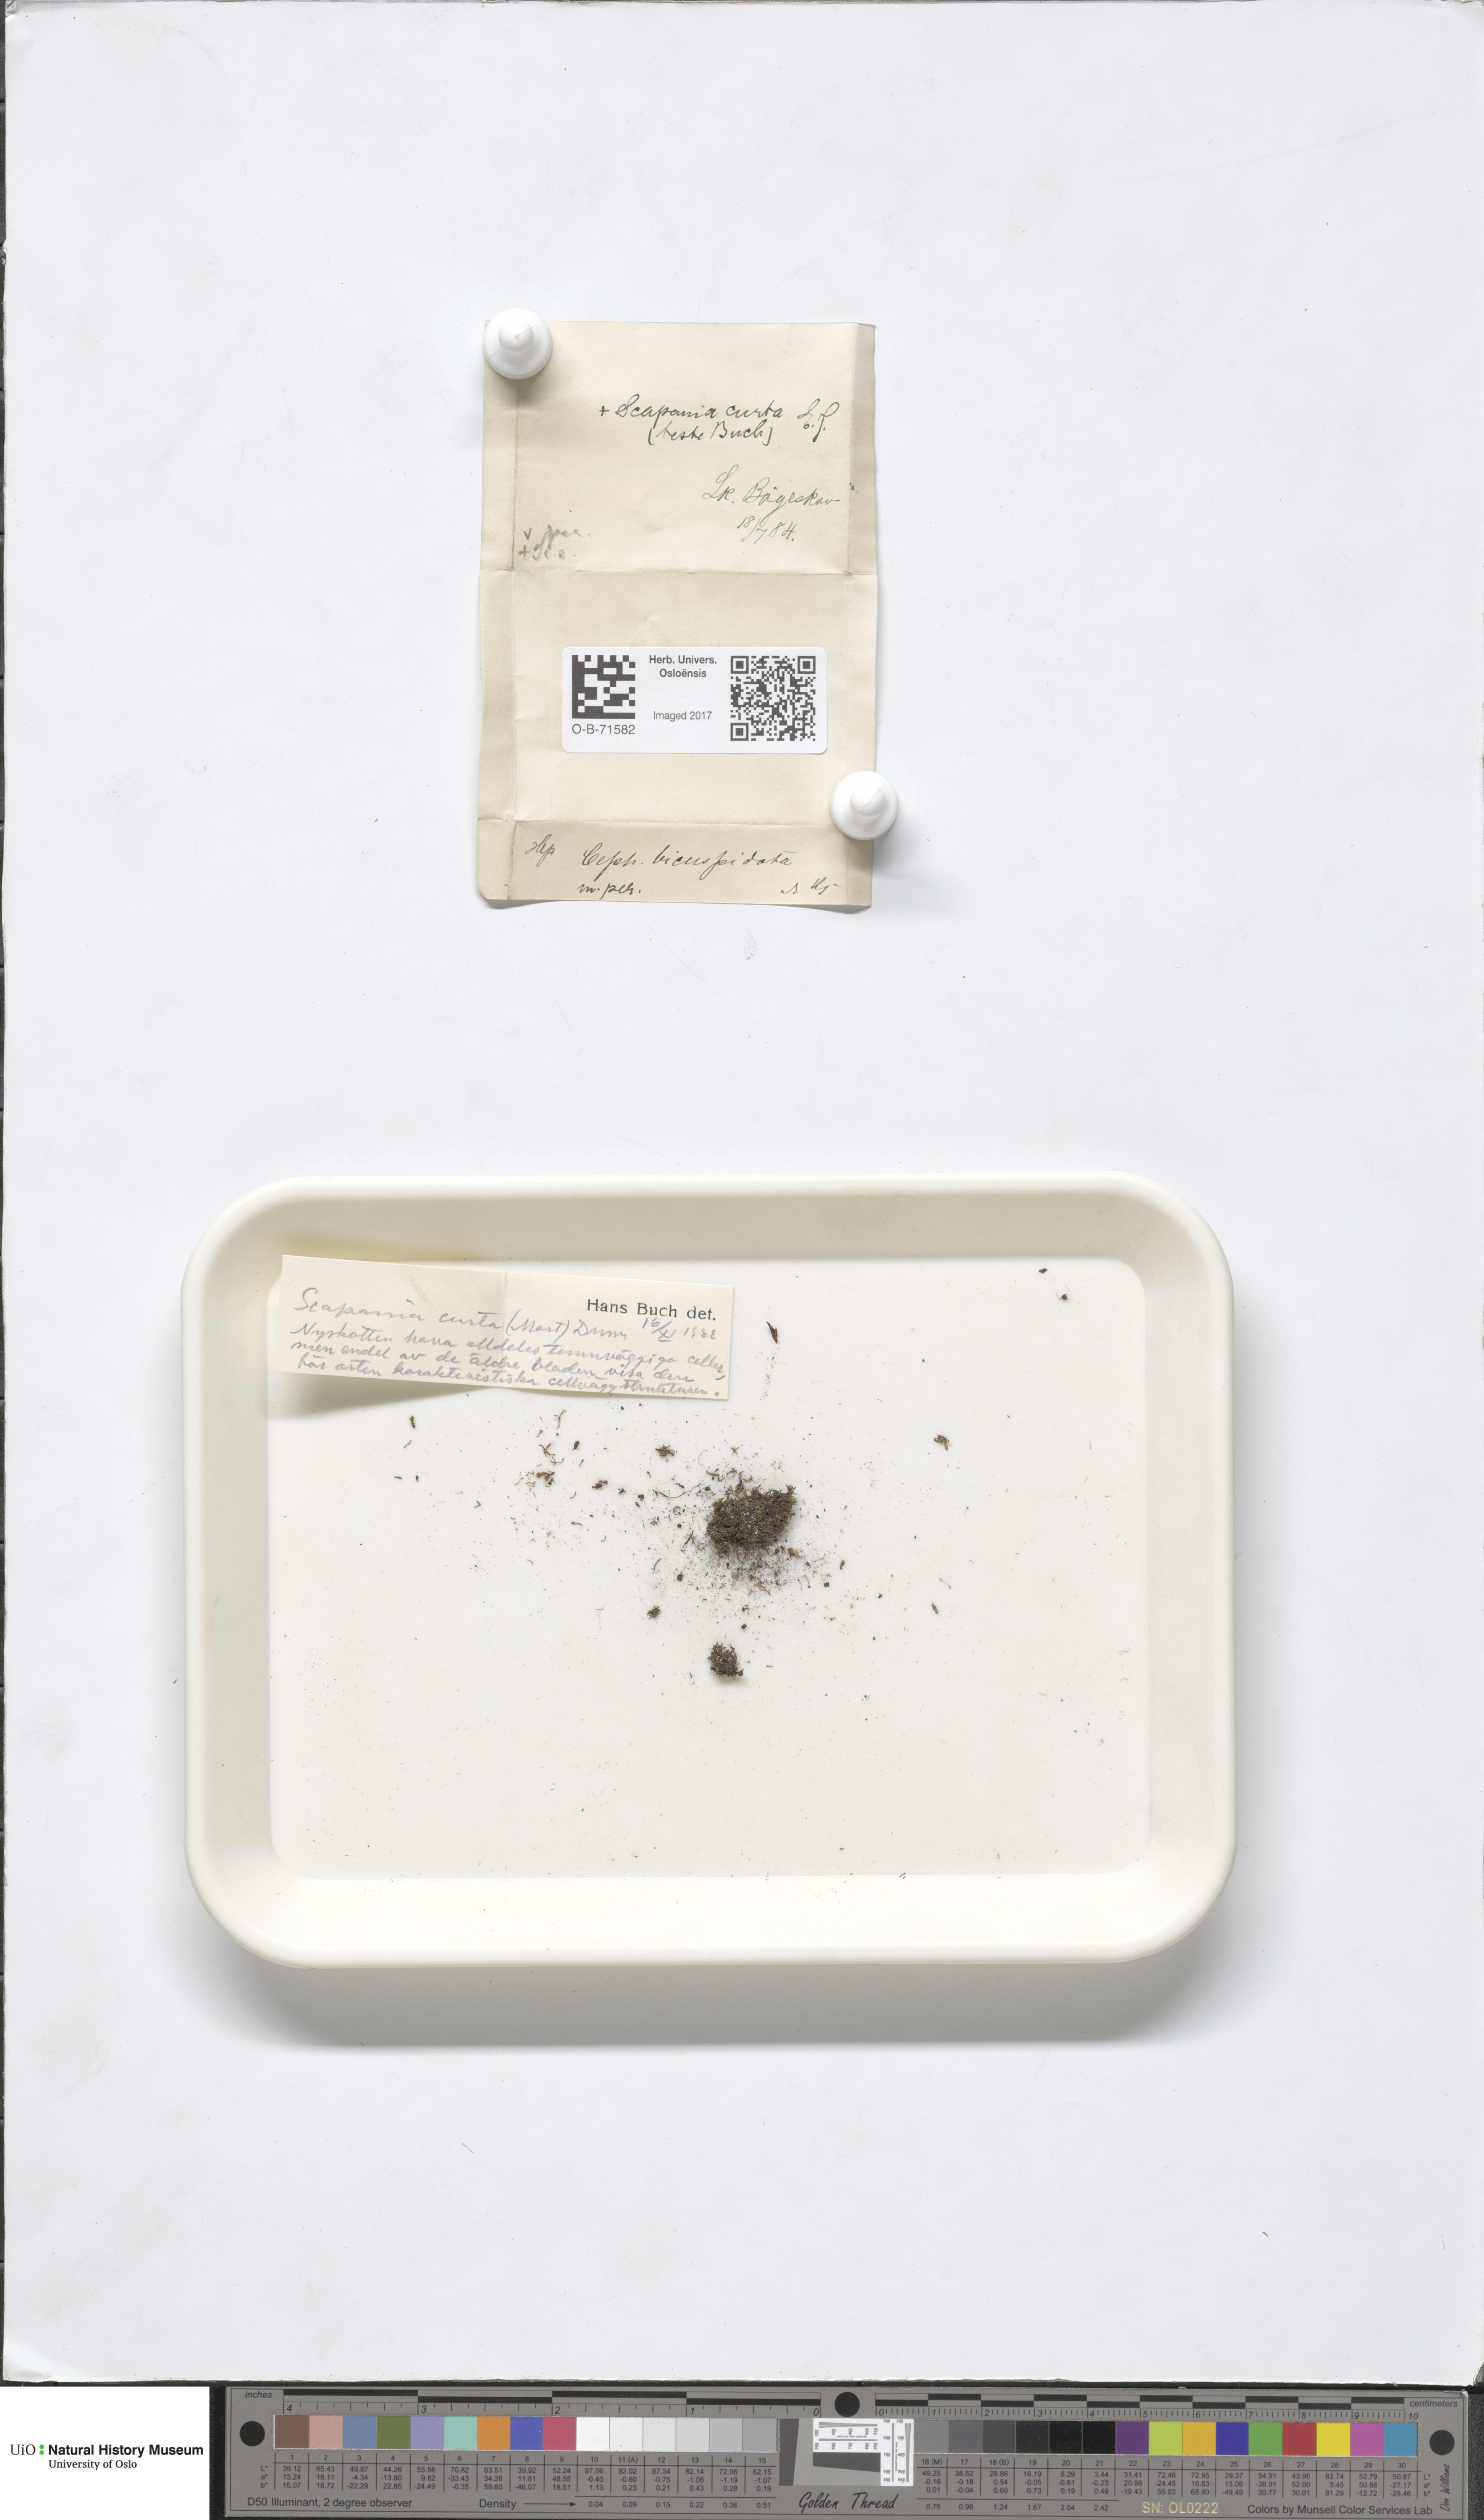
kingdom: Plantae
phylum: Marchantiophyta
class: Jungermanniopsida
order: Jungermanniales
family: Cephaloziaceae
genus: Cephalozia
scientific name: Cephalozia bicuspidata
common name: Two-horned pincerwort
